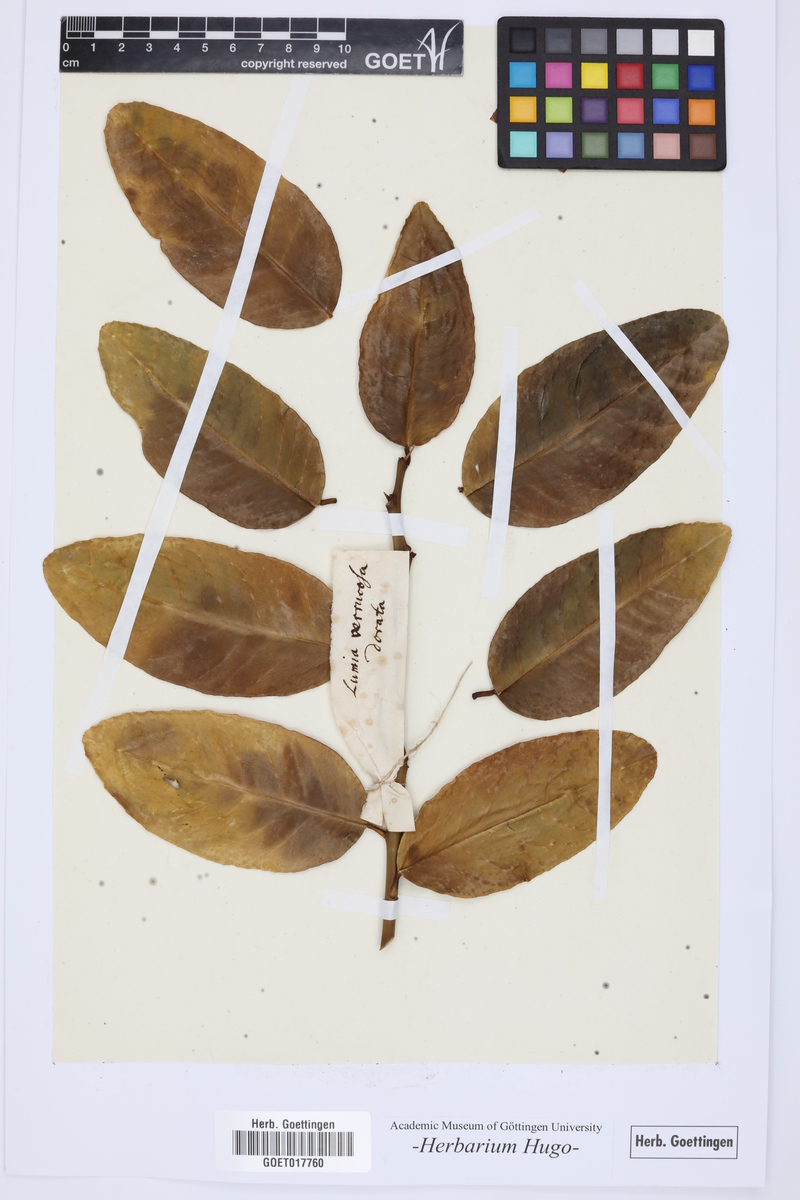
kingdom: Plantae
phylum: Tracheophyta
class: Magnoliopsida
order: Sapindales
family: Rutaceae
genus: Citrus
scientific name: Citrus
